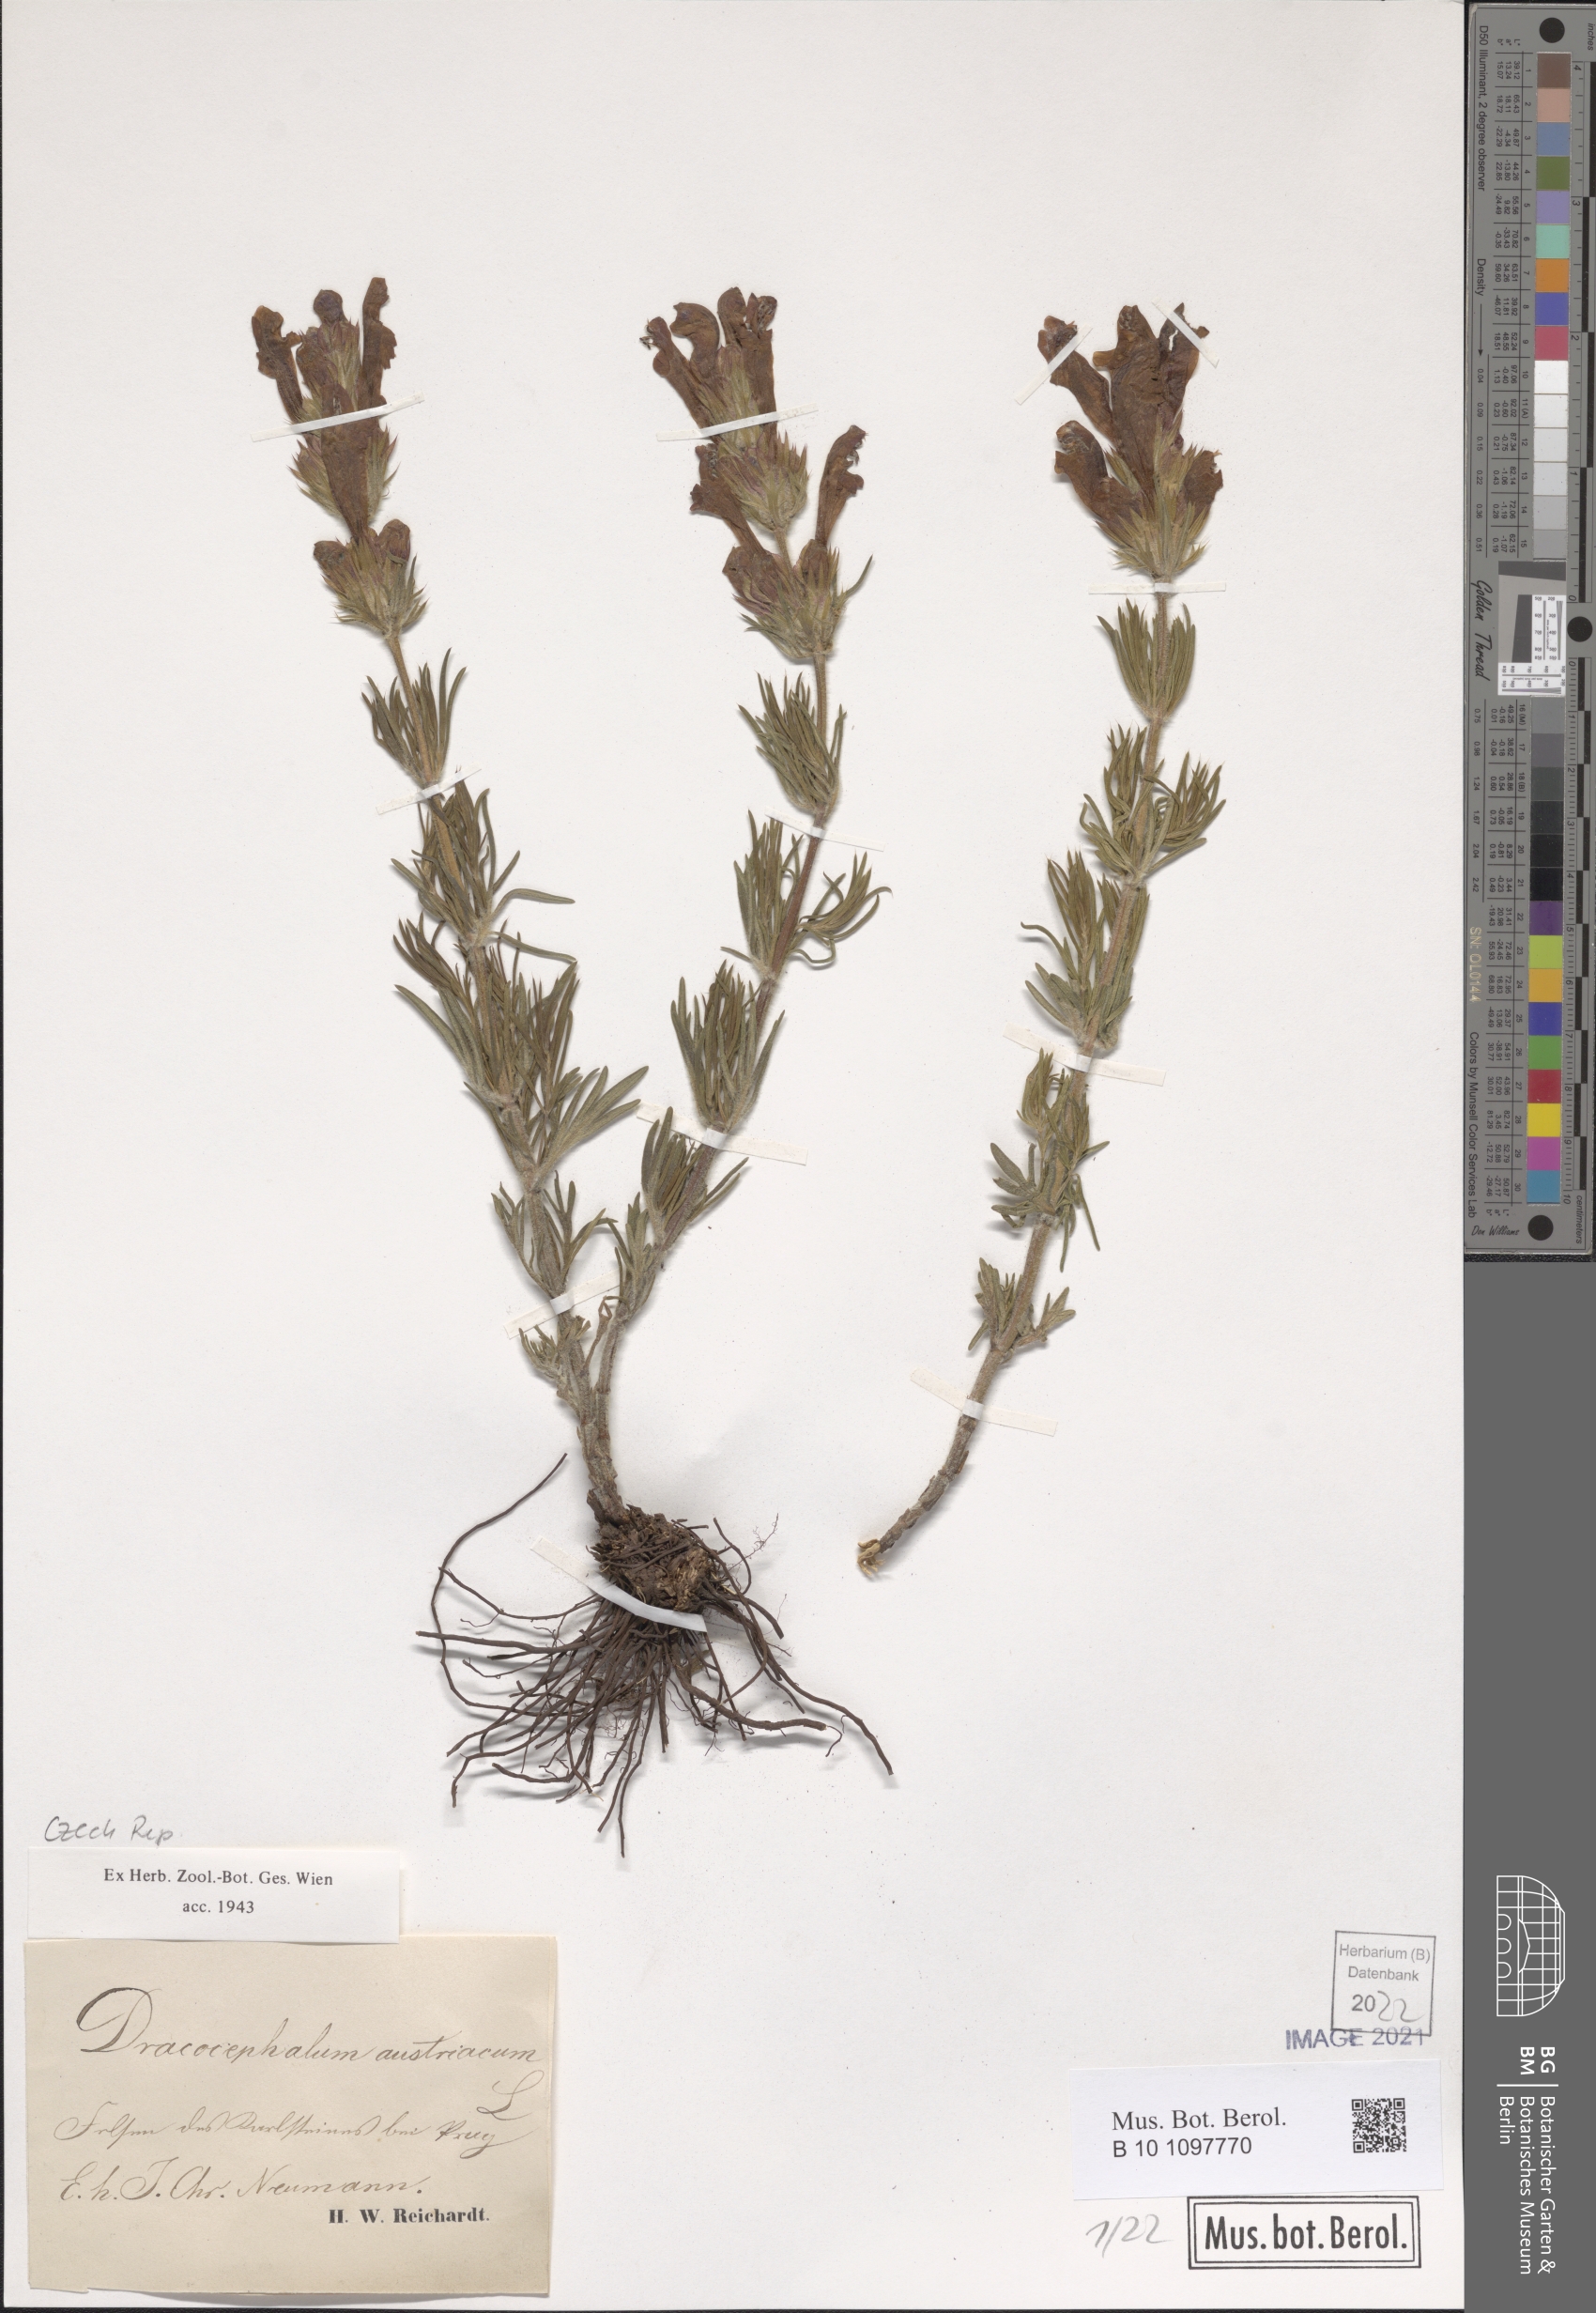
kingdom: Plantae
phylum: Tracheophyta
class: Magnoliopsida
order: Lamiales
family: Lamiaceae
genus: Dracocephalum
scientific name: Dracocephalum austriacum
